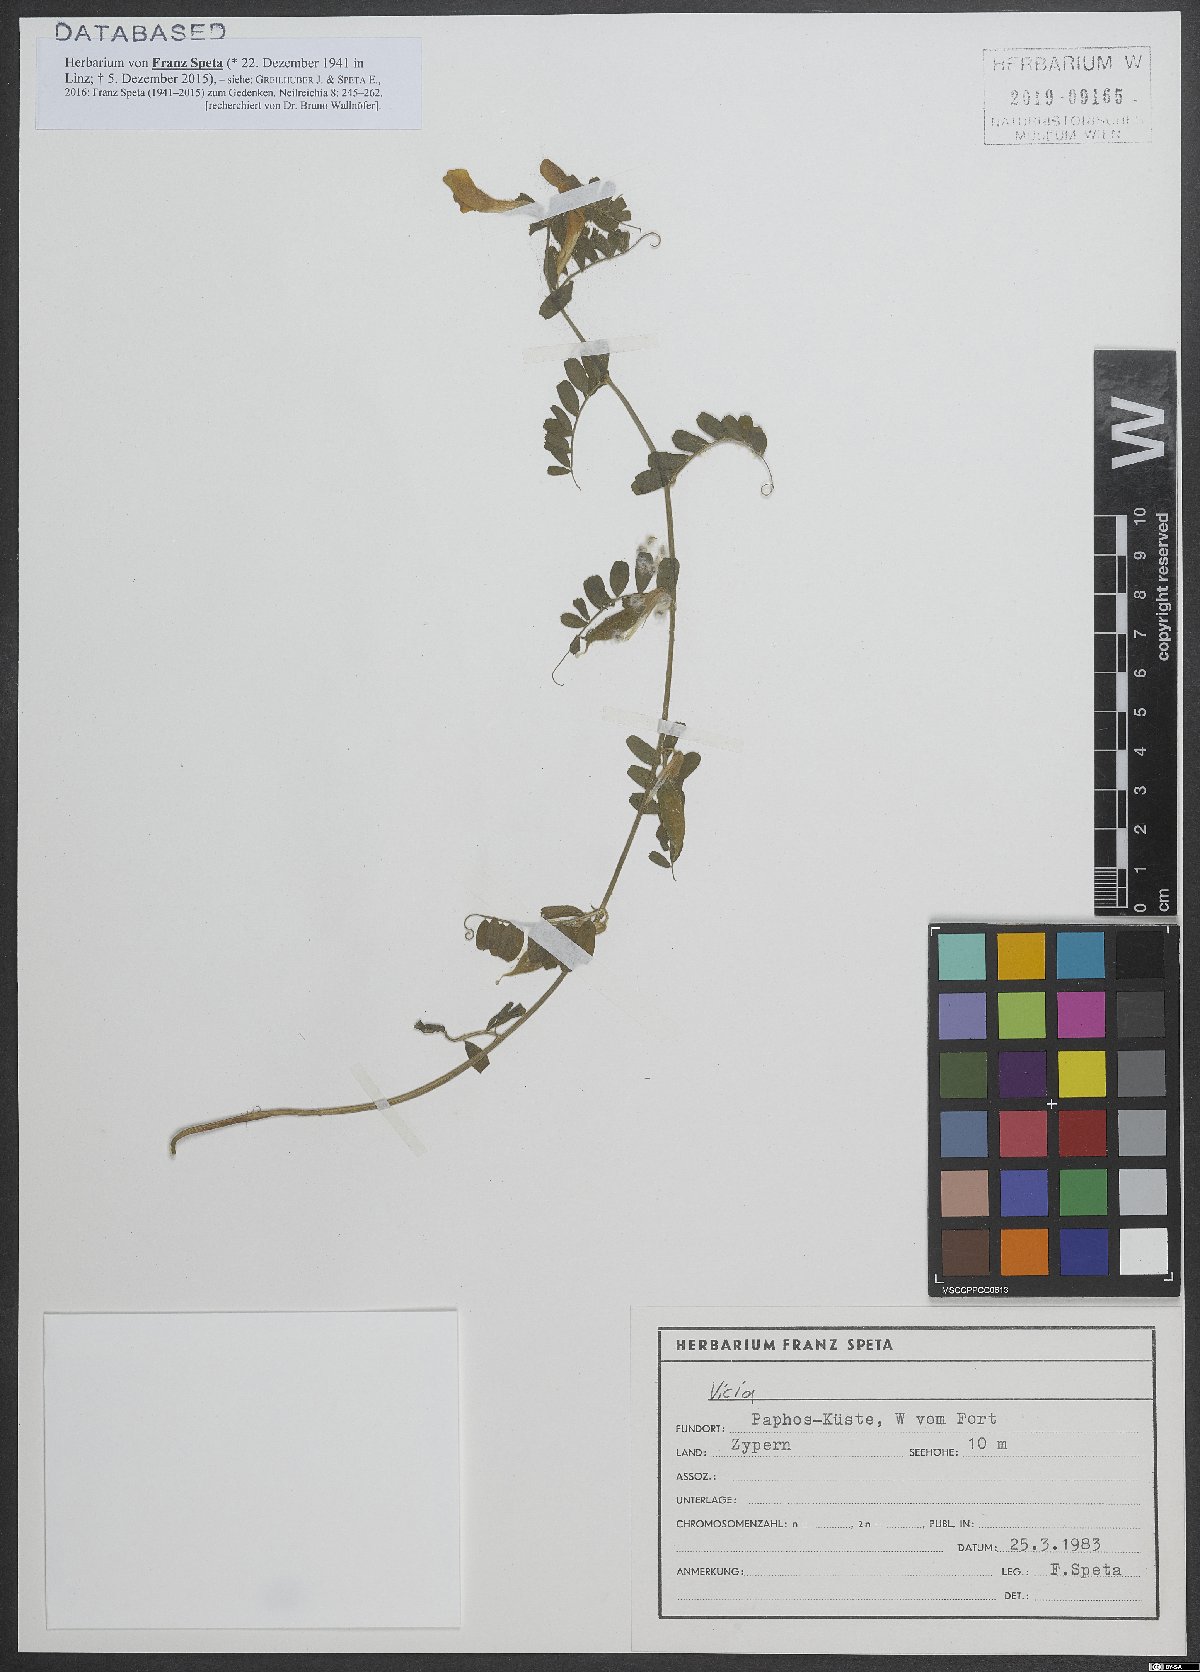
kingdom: Plantae
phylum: Tracheophyta
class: Magnoliopsida
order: Fabales
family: Fabaceae
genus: Vicia
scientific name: Vicia
